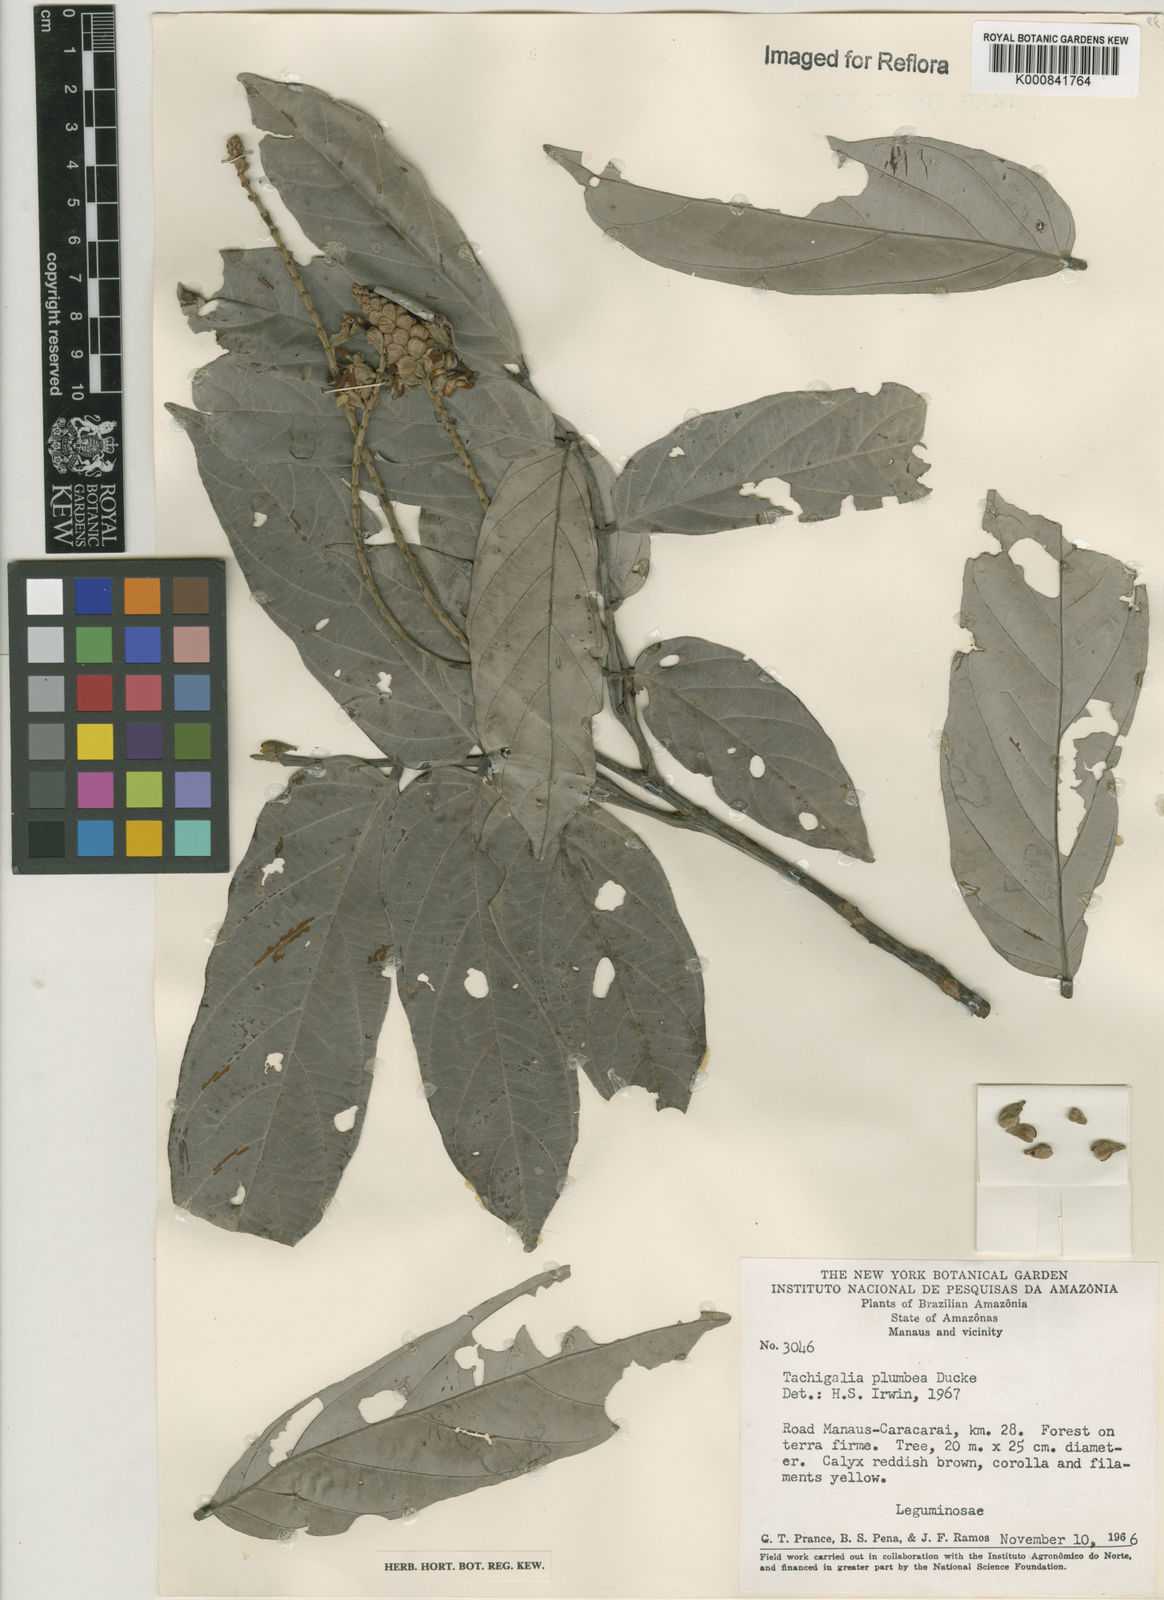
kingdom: Plantae
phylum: Tracheophyta
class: Magnoliopsida
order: Fabales
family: Fabaceae
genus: Tachigali
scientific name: Tachigali plumbea
